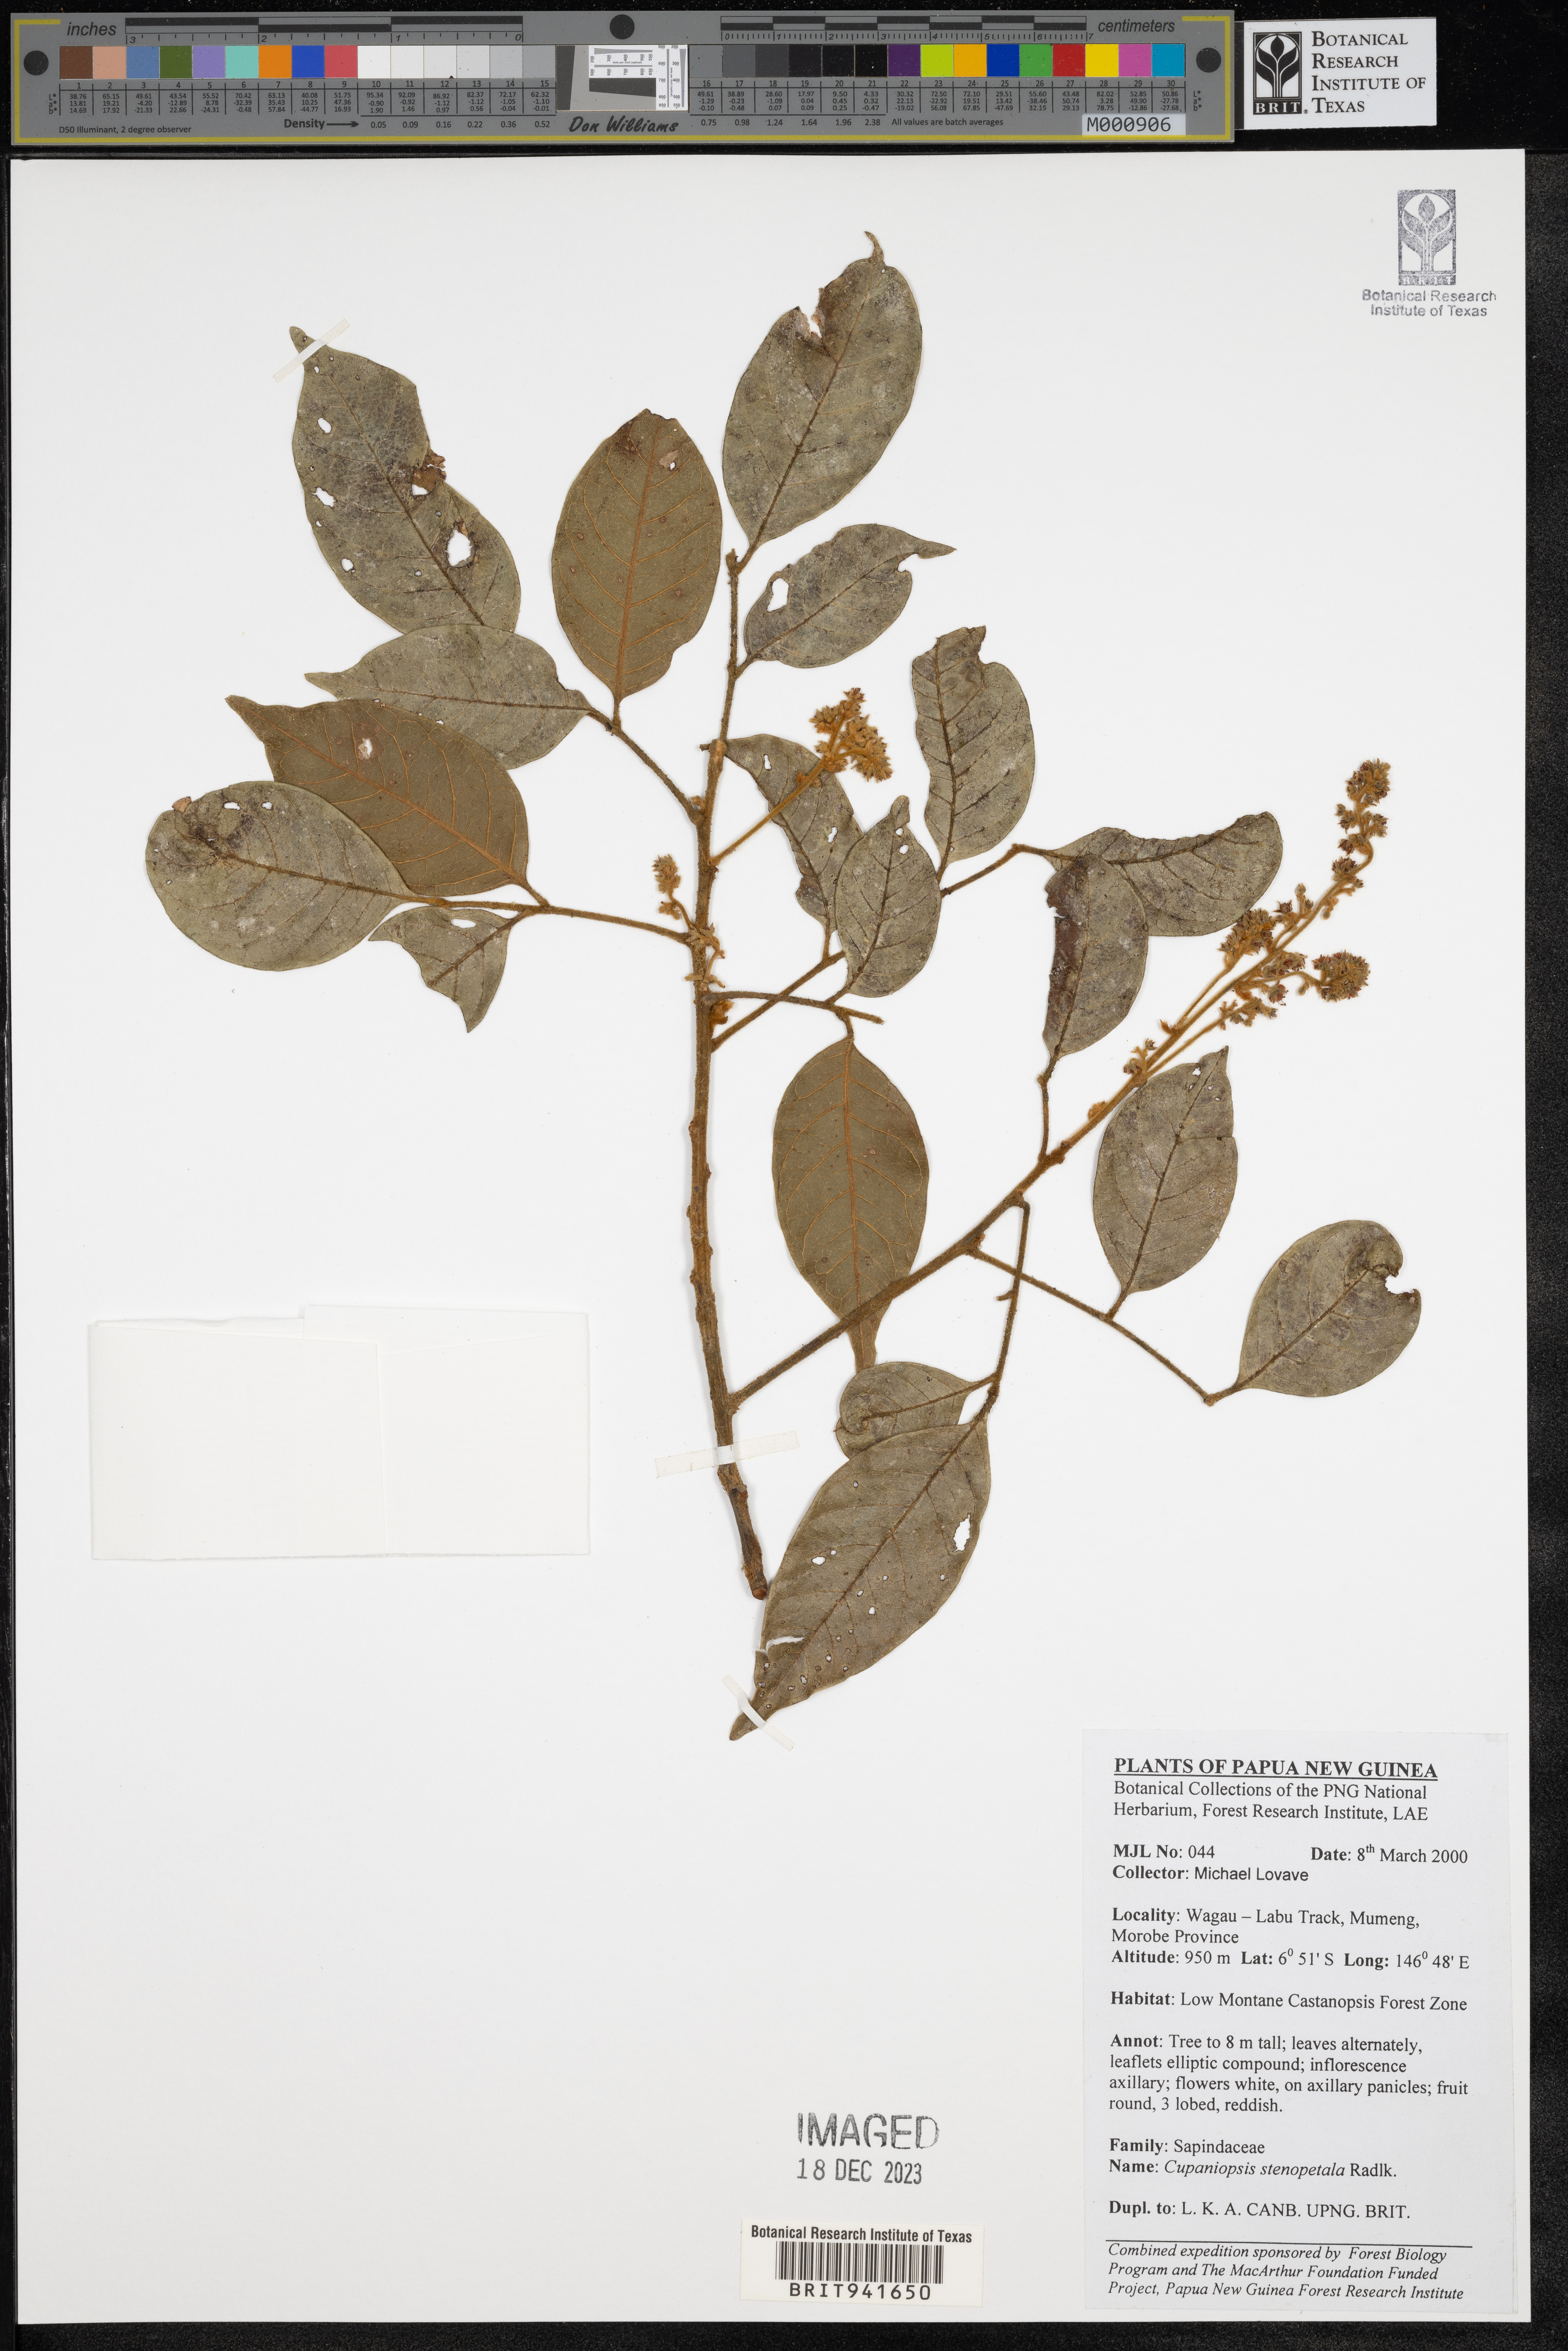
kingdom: Plantae
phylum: Tracheophyta
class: Magnoliopsida
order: Sapindales
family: Sapindaceae
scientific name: Sapindaceae
